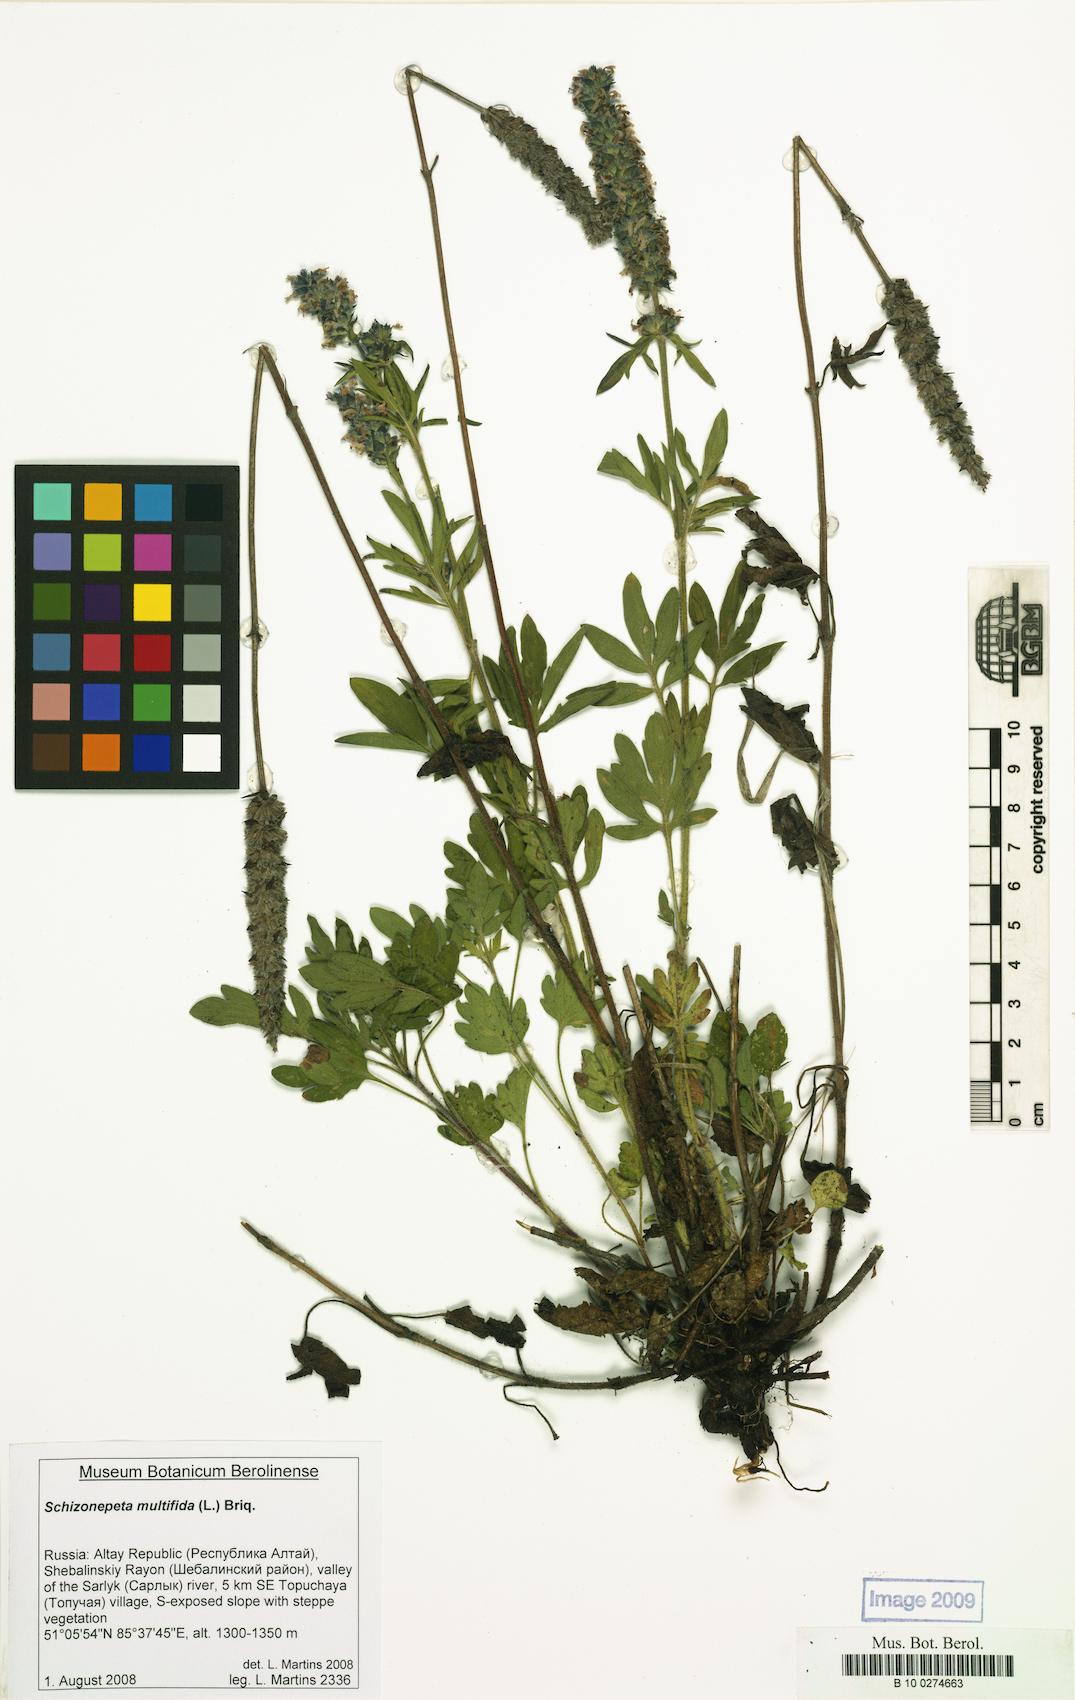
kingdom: Plantae
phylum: Tracheophyta
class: Magnoliopsida
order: Lamiales
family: Lamiaceae
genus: Nepeta
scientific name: Nepeta multifida
